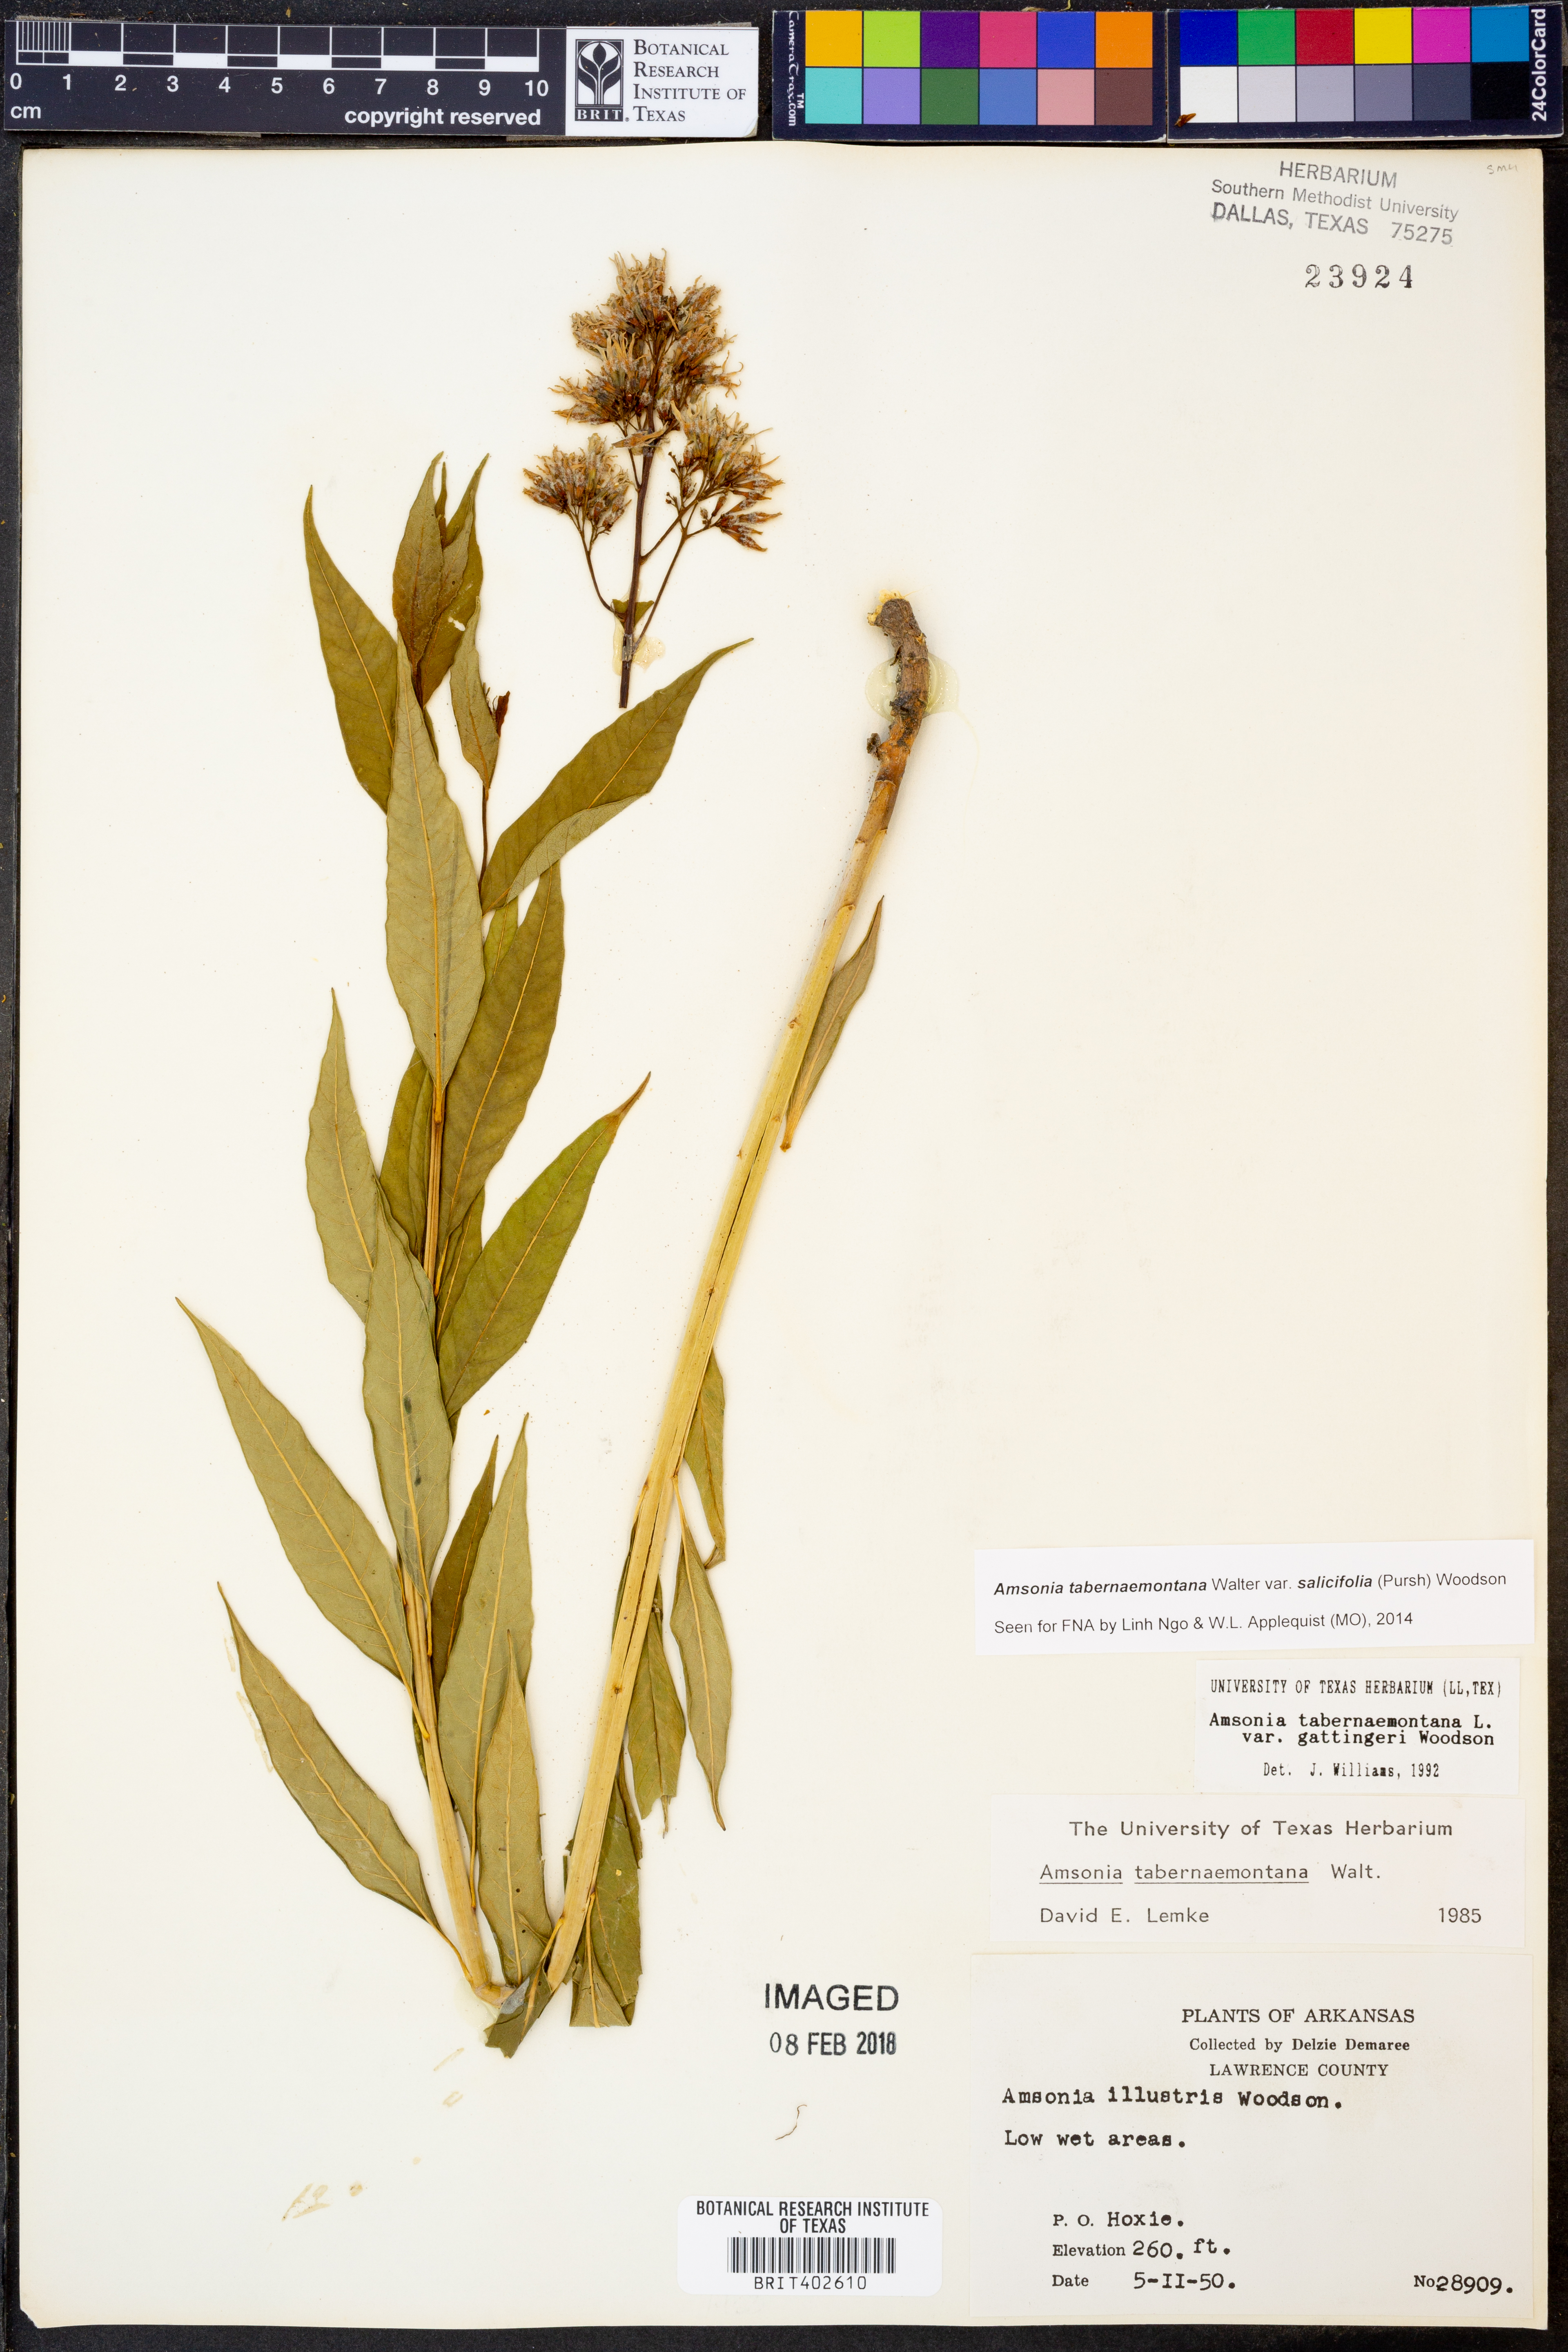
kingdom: Plantae
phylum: Tracheophyta
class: Magnoliopsida
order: Gentianales
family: Apocynaceae
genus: Amsonia
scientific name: Amsonia tabernaemontana
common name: Texas-star
